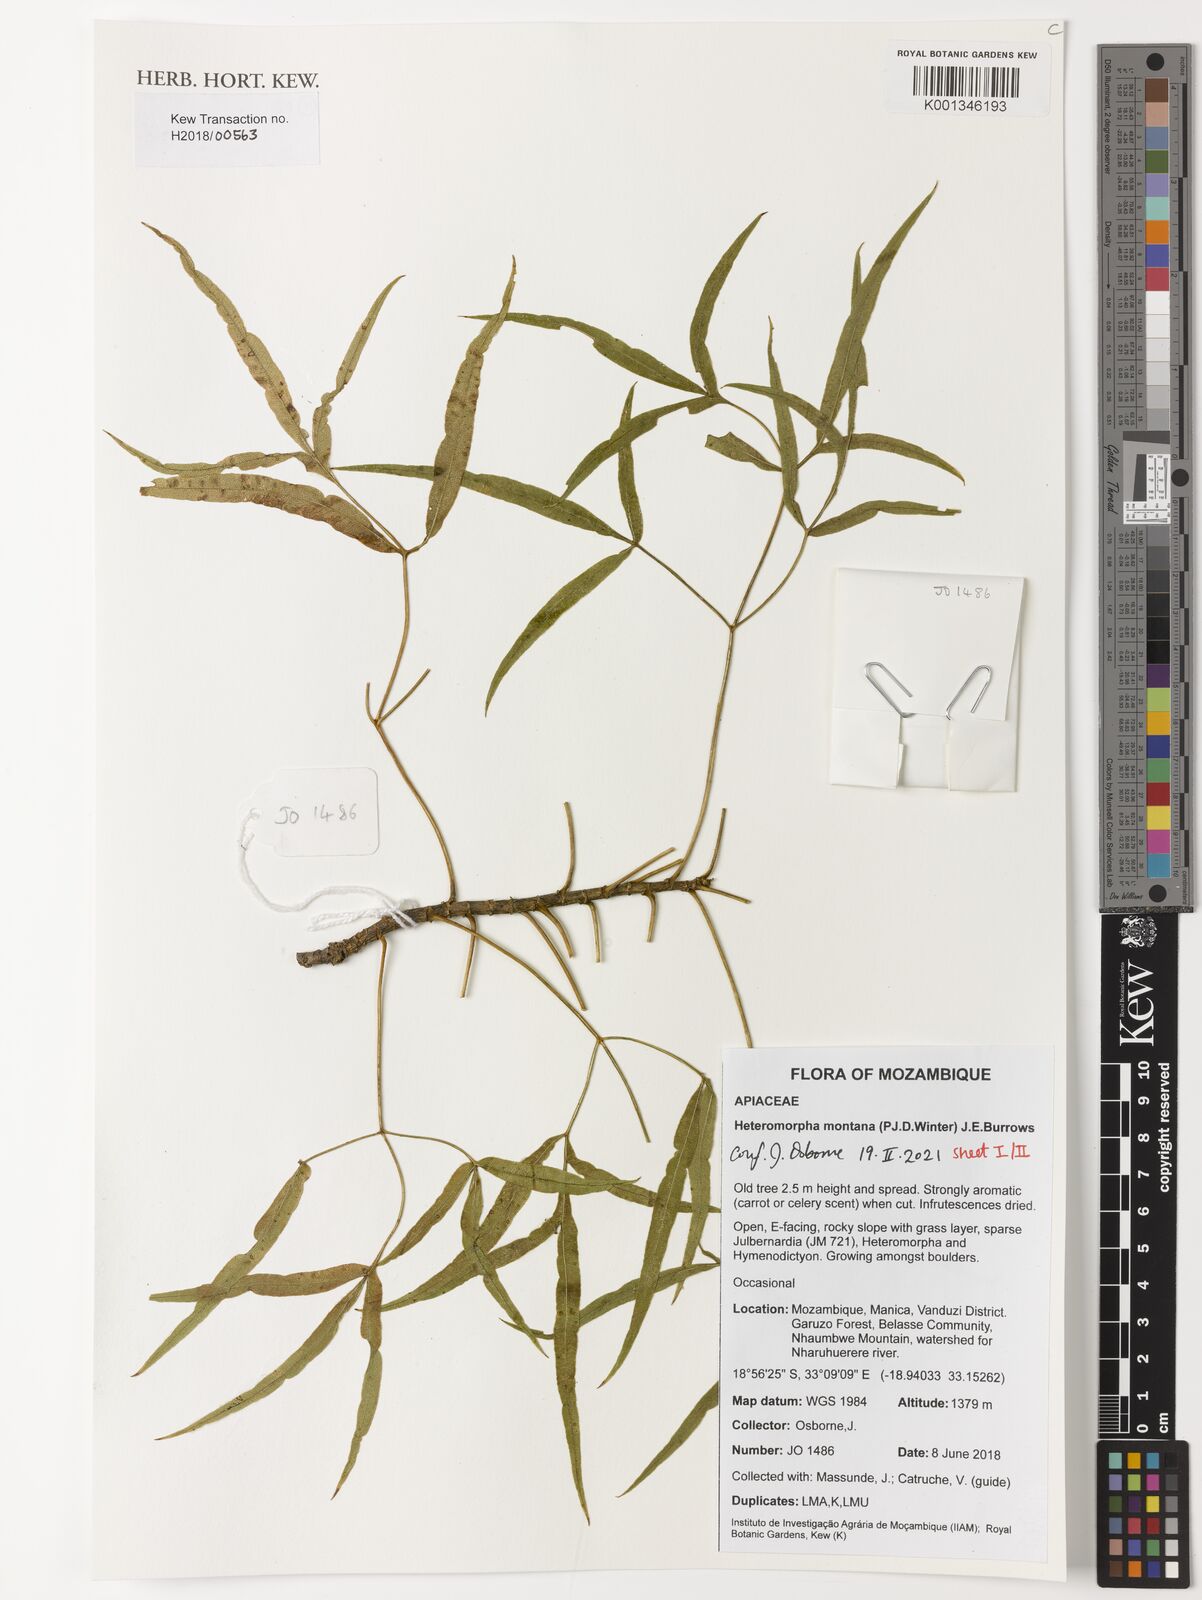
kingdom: Plantae
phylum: Tracheophyta
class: Magnoliopsida
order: Apiales
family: Apiaceae
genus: Heteromorpha
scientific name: Heteromorpha montana
